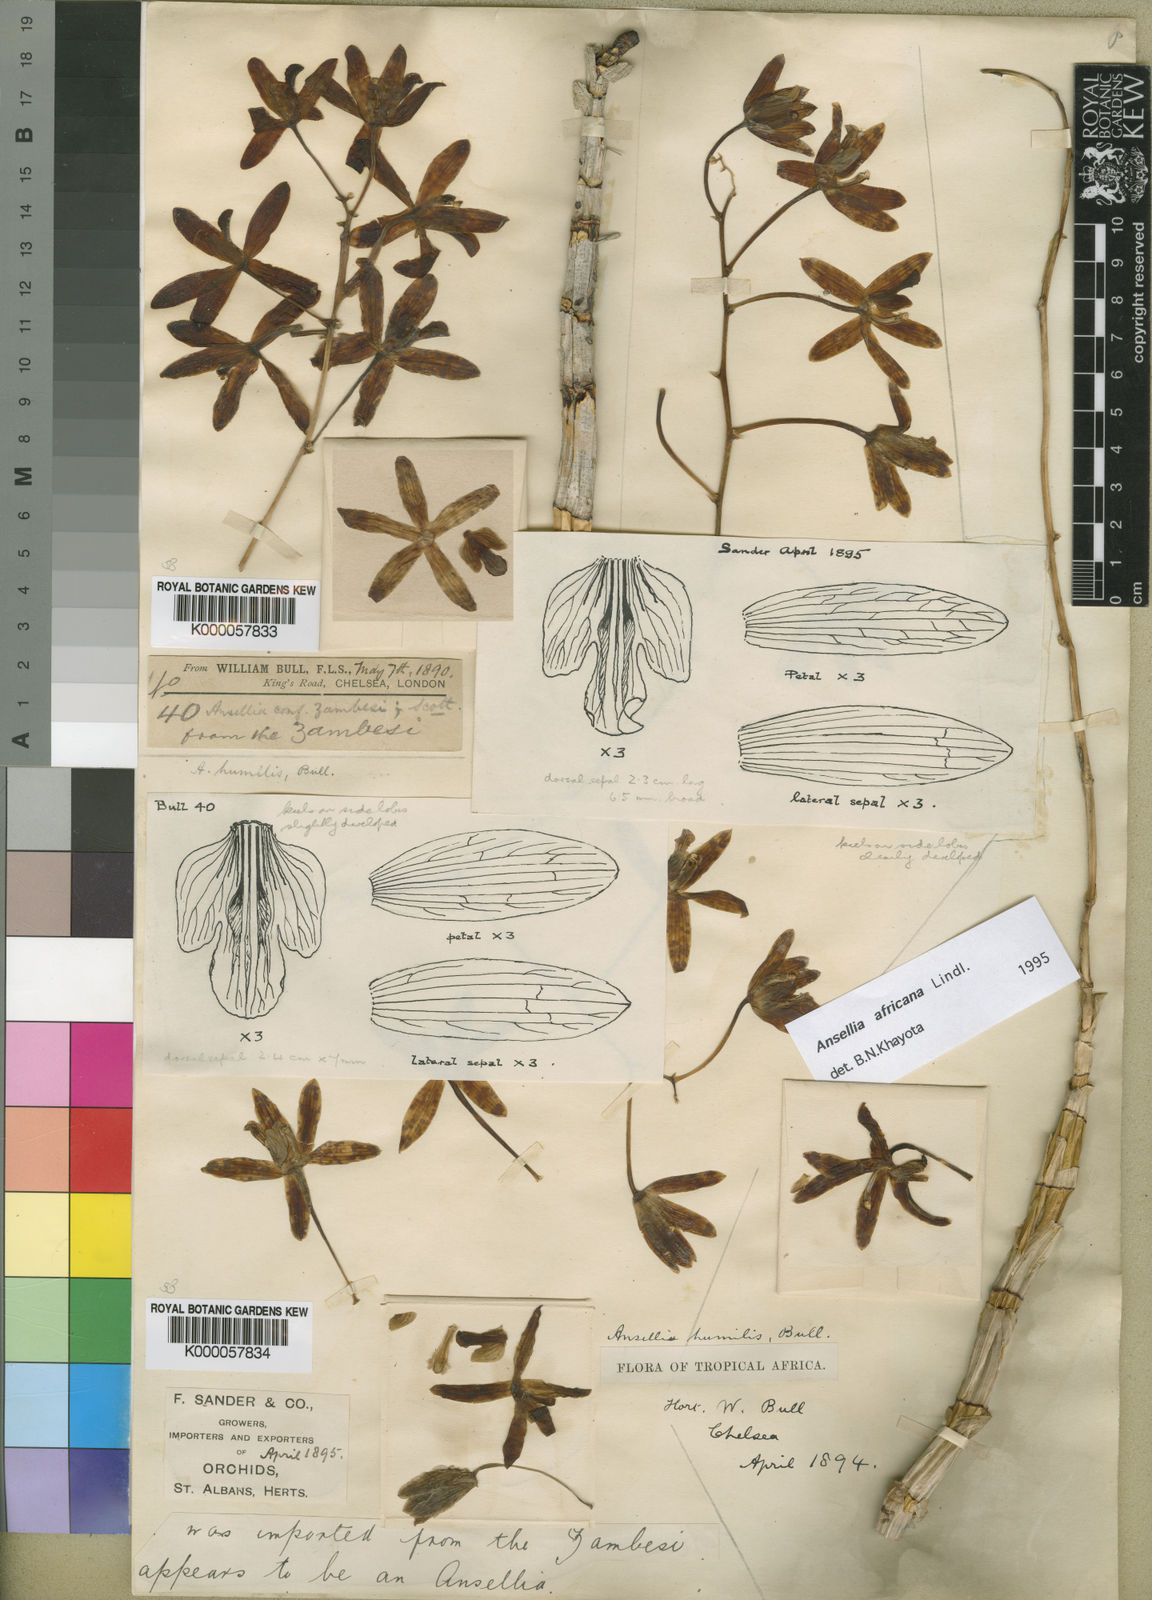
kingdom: Plantae
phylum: Tracheophyta
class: Liliopsida
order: Asparagales
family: Orchidaceae
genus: Ansellia
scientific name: Ansellia africana
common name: African ansellia
